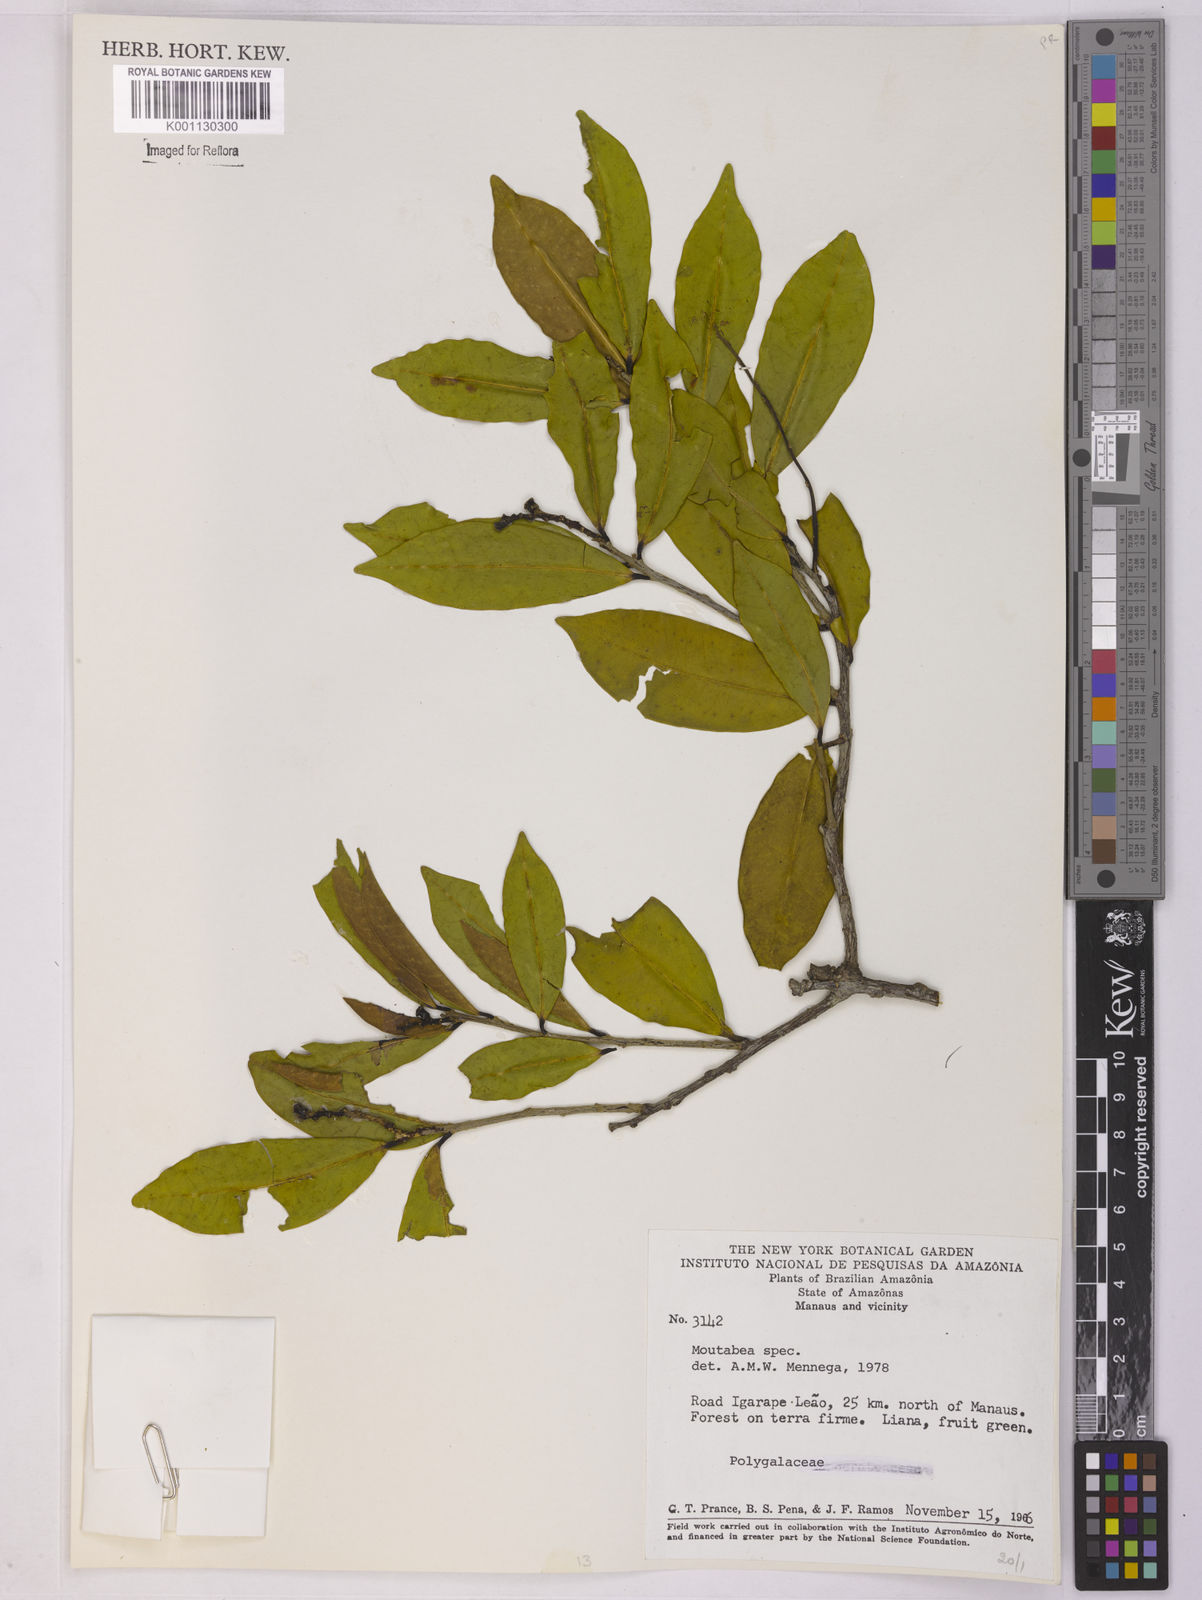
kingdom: Plantae
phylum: Tracheophyta
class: Magnoliopsida
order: Fabales
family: Polygalaceae
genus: Moutabea
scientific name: Moutabea
